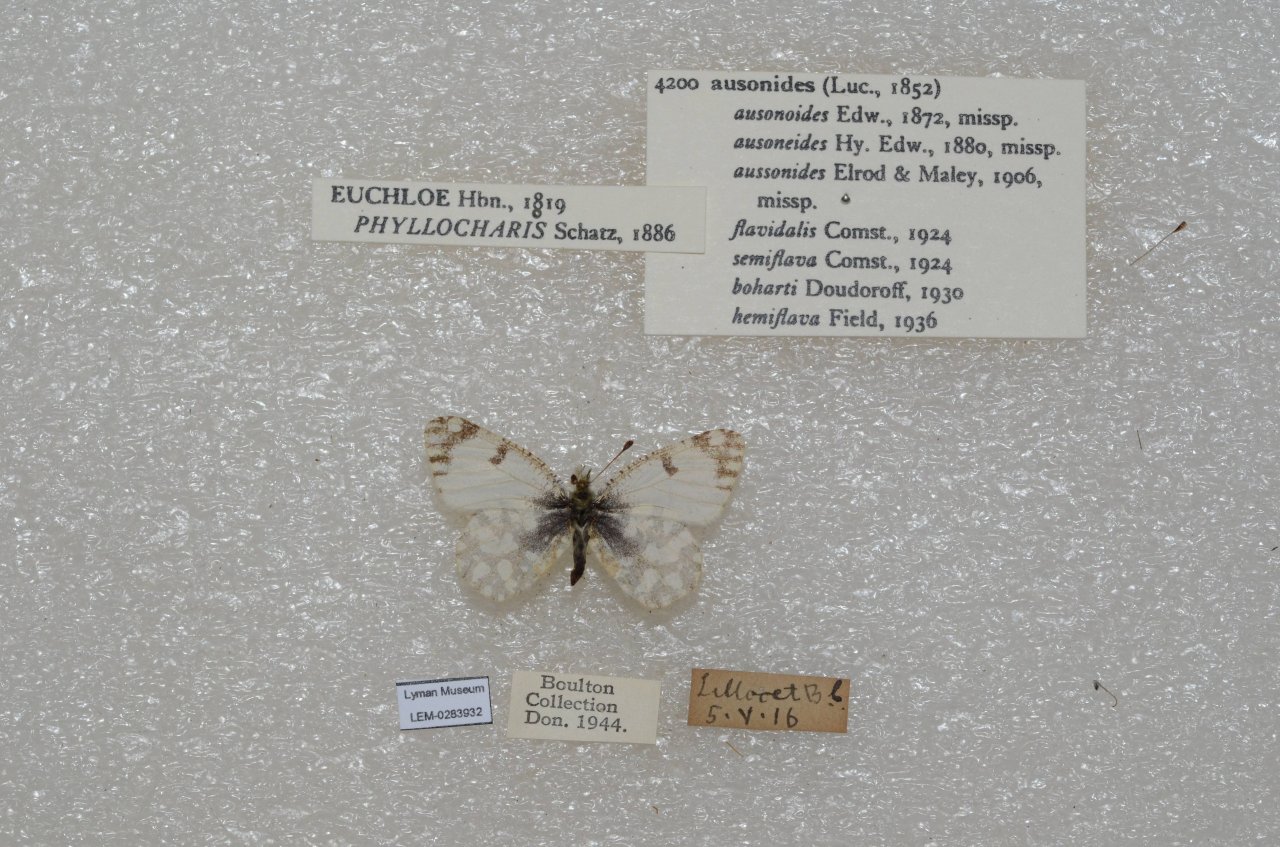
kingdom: Animalia
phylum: Arthropoda
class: Insecta
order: Lepidoptera
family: Pieridae
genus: Euchloe
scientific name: Euchloe ausonides
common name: Large Marble
